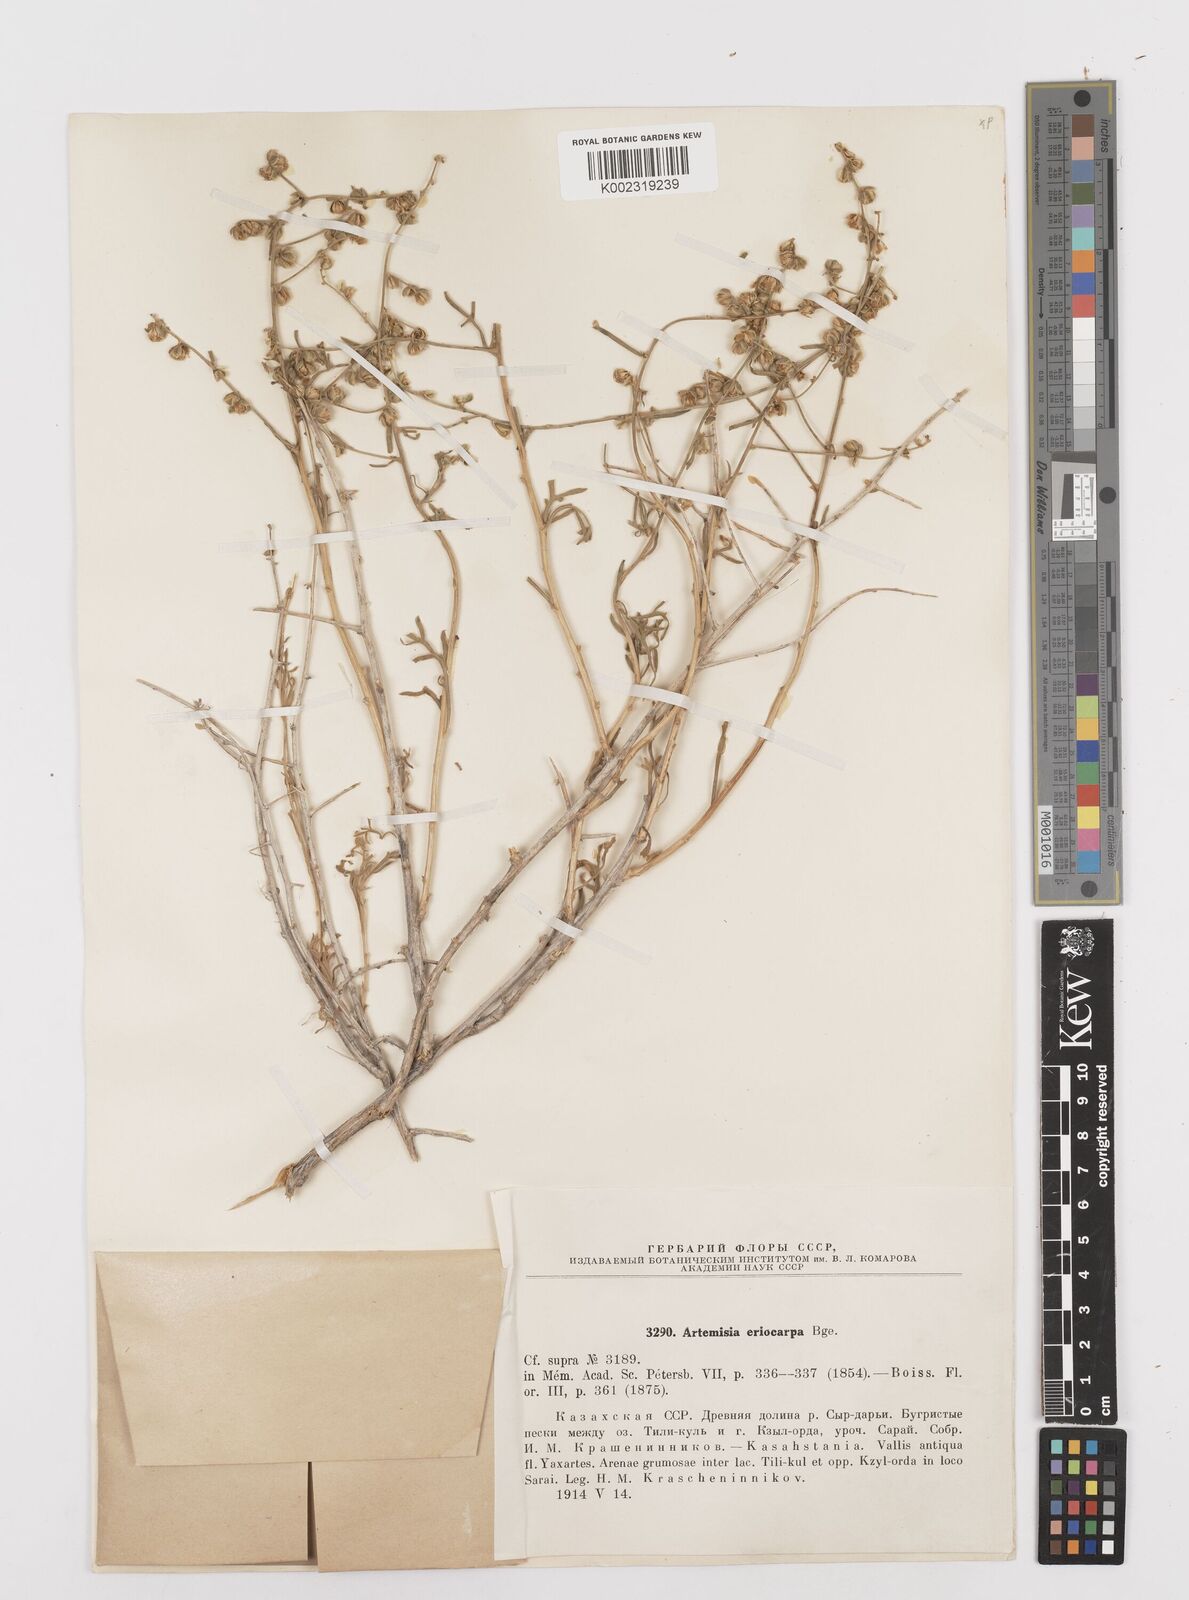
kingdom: Plantae
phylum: Tracheophyta
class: Magnoliopsida
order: Asterales
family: Asteraceae
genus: Mausolea
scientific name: Mausolea
